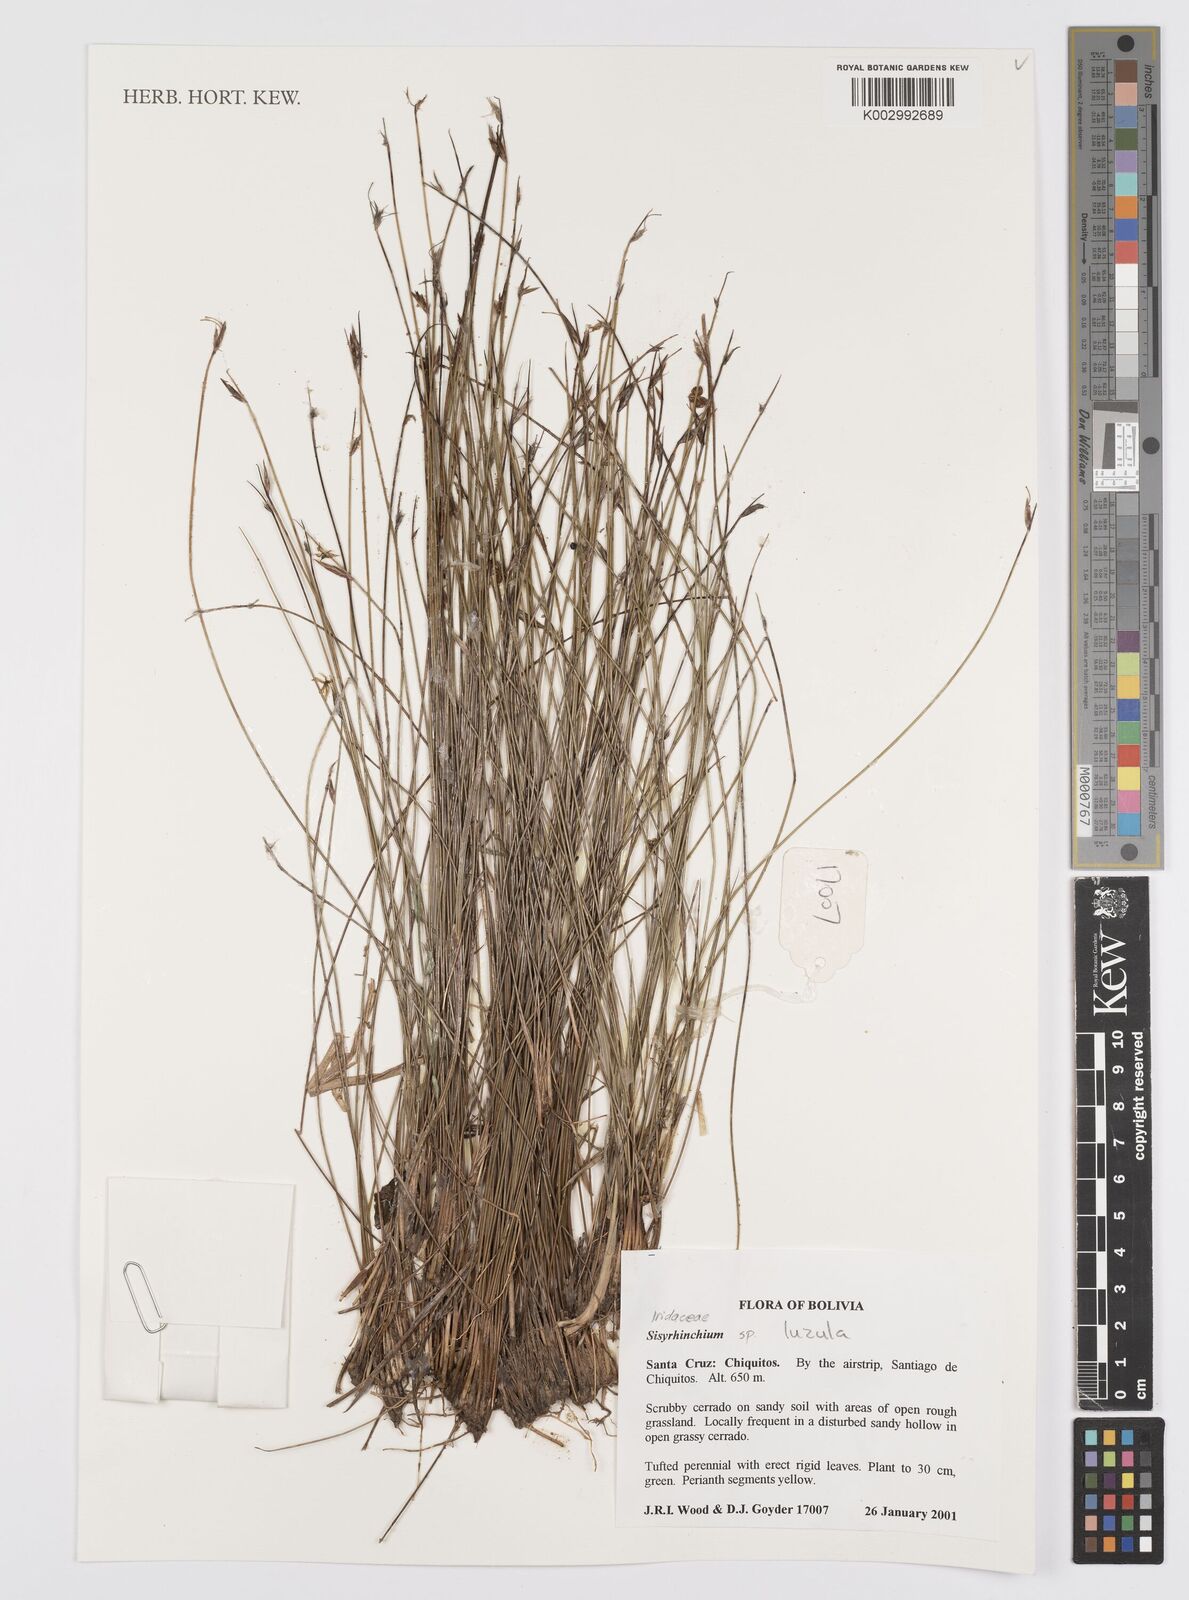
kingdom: Plantae
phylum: Tracheophyta
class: Liliopsida
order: Asparagales
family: Iridaceae
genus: Sisyrinchium
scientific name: Sisyrinchium
